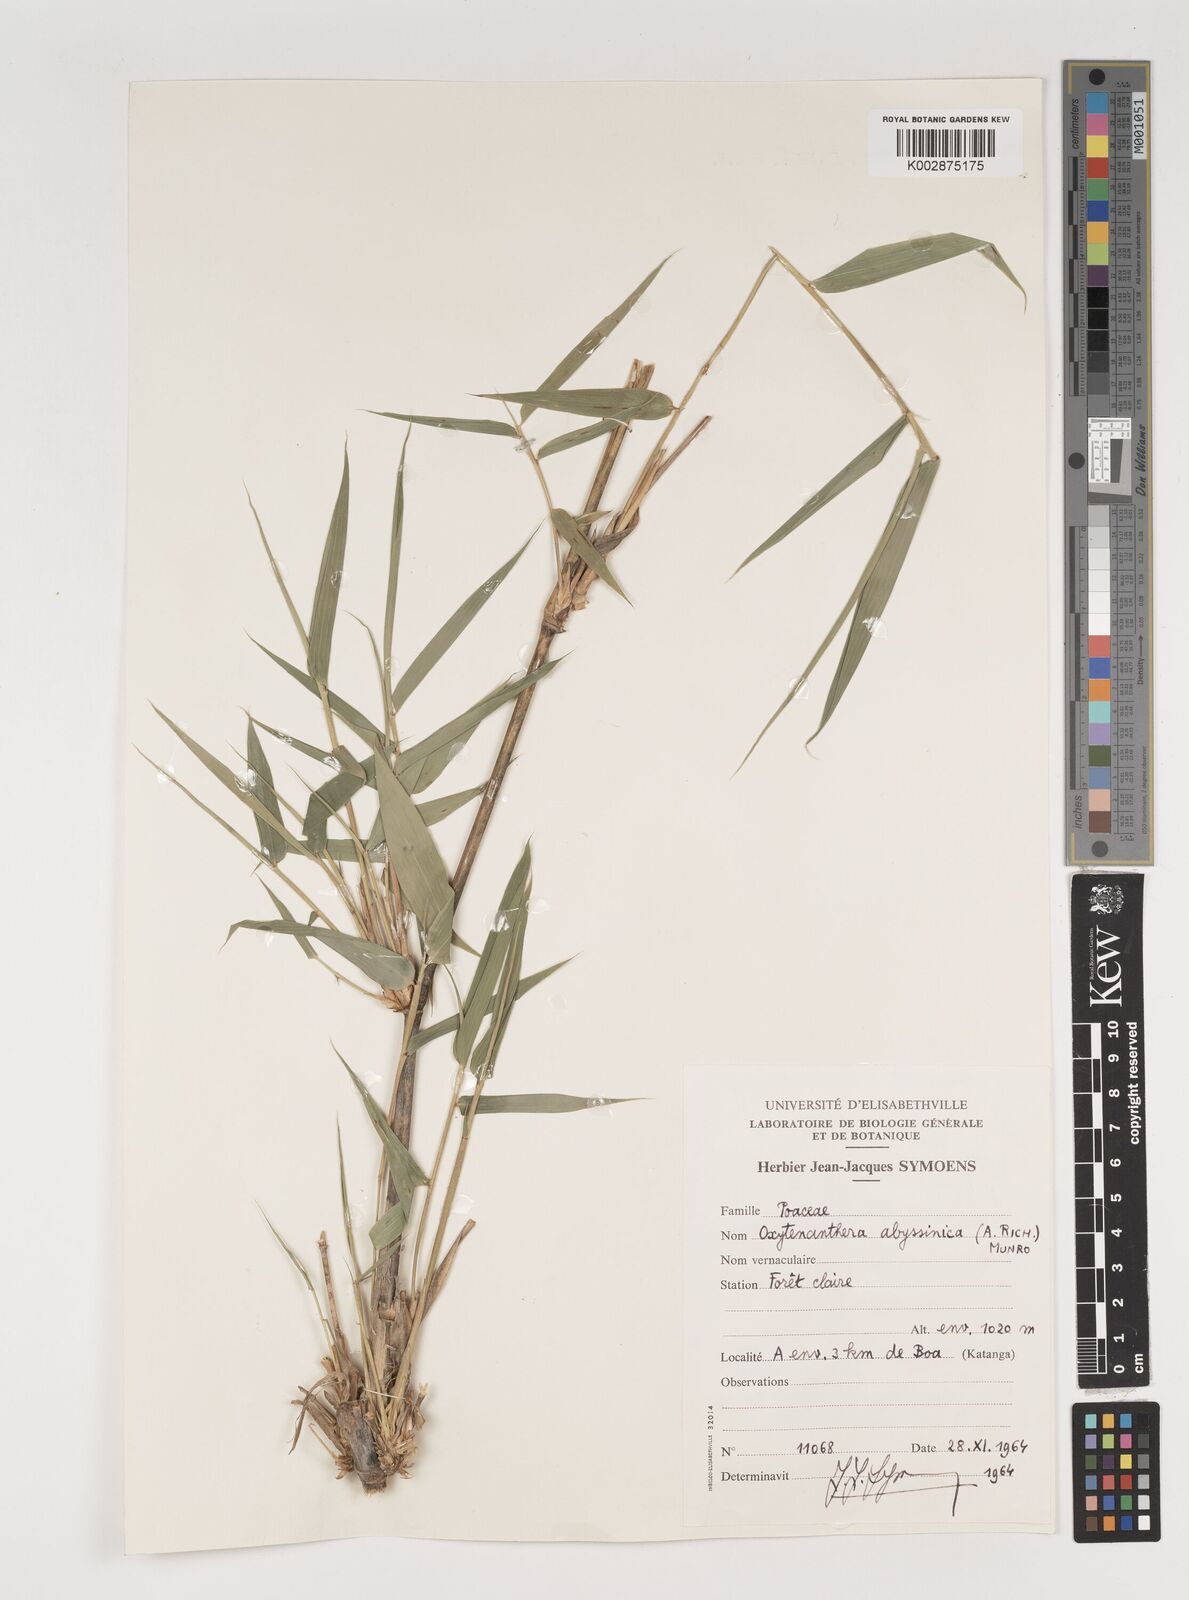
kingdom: Plantae
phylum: Tracheophyta
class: Liliopsida
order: Poales
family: Poaceae
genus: Oxytenanthera
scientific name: Oxytenanthera abyssinica
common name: Wine bamboo
